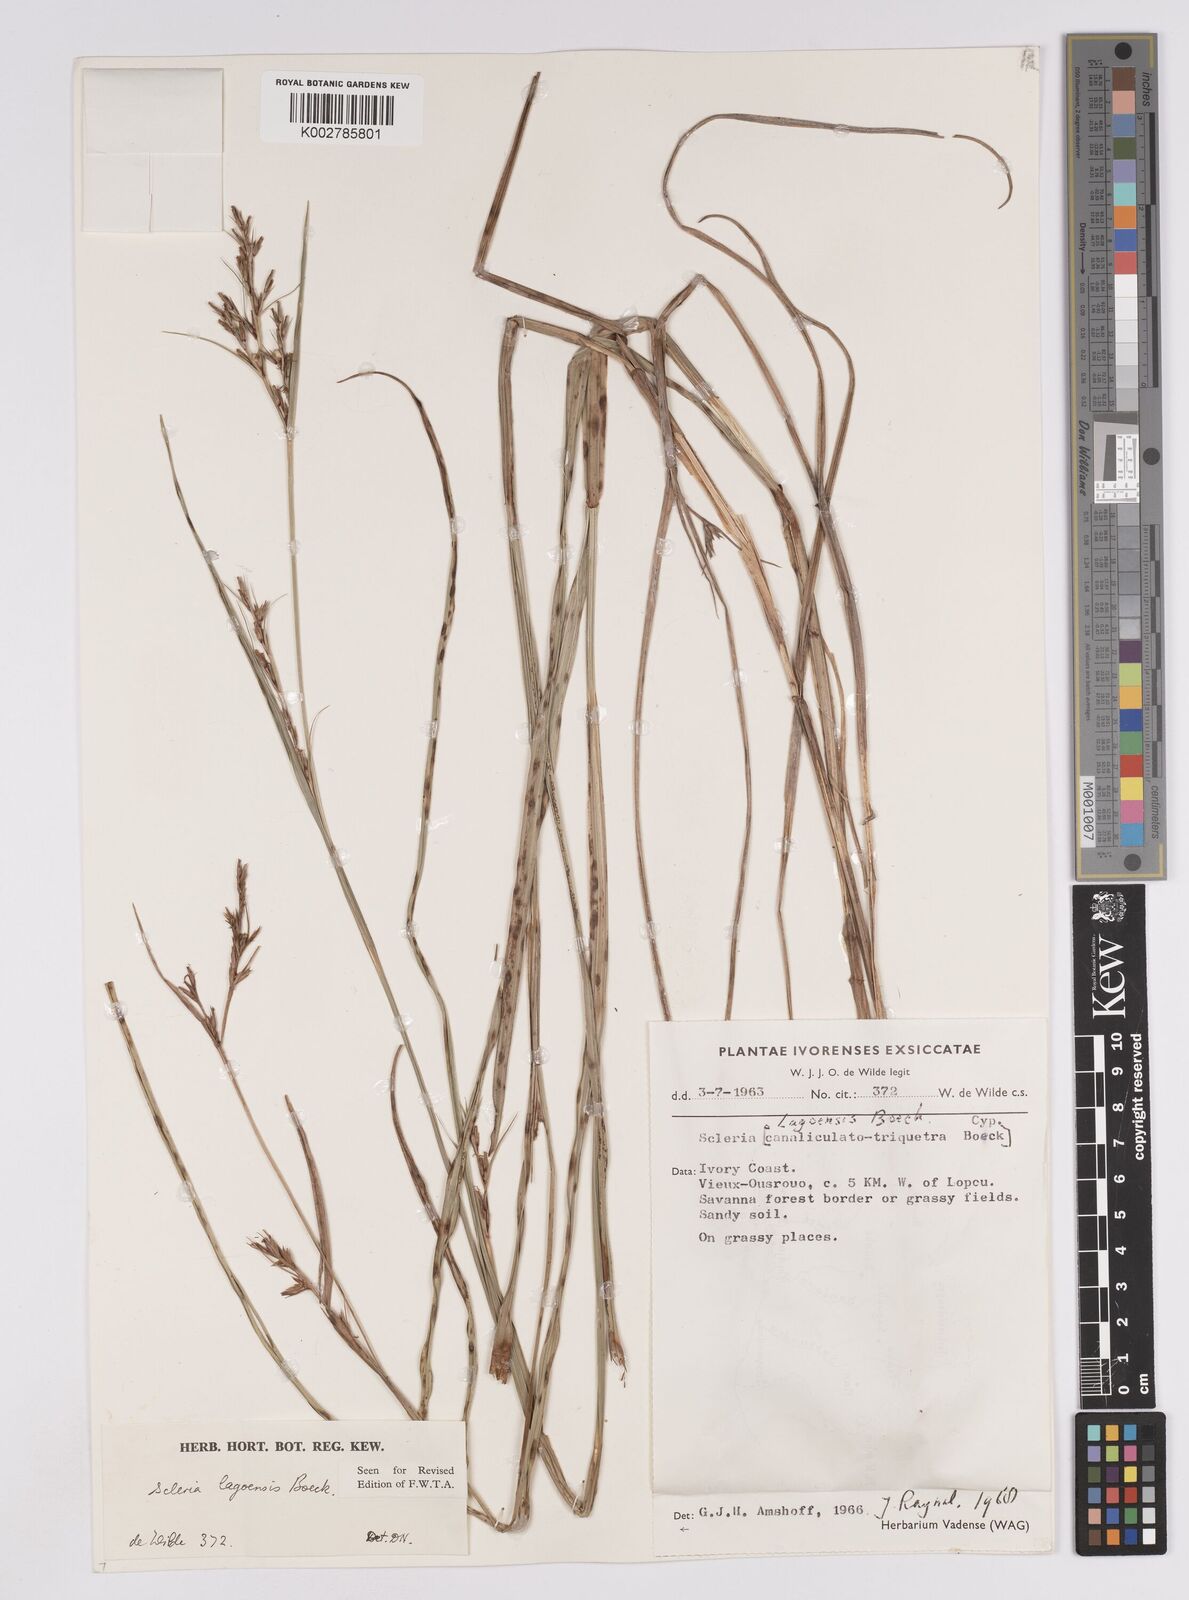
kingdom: Plantae
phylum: Tracheophyta
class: Liliopsida
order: Poales
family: Cyperaceae
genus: Scleria
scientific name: Scleria lagoensis
